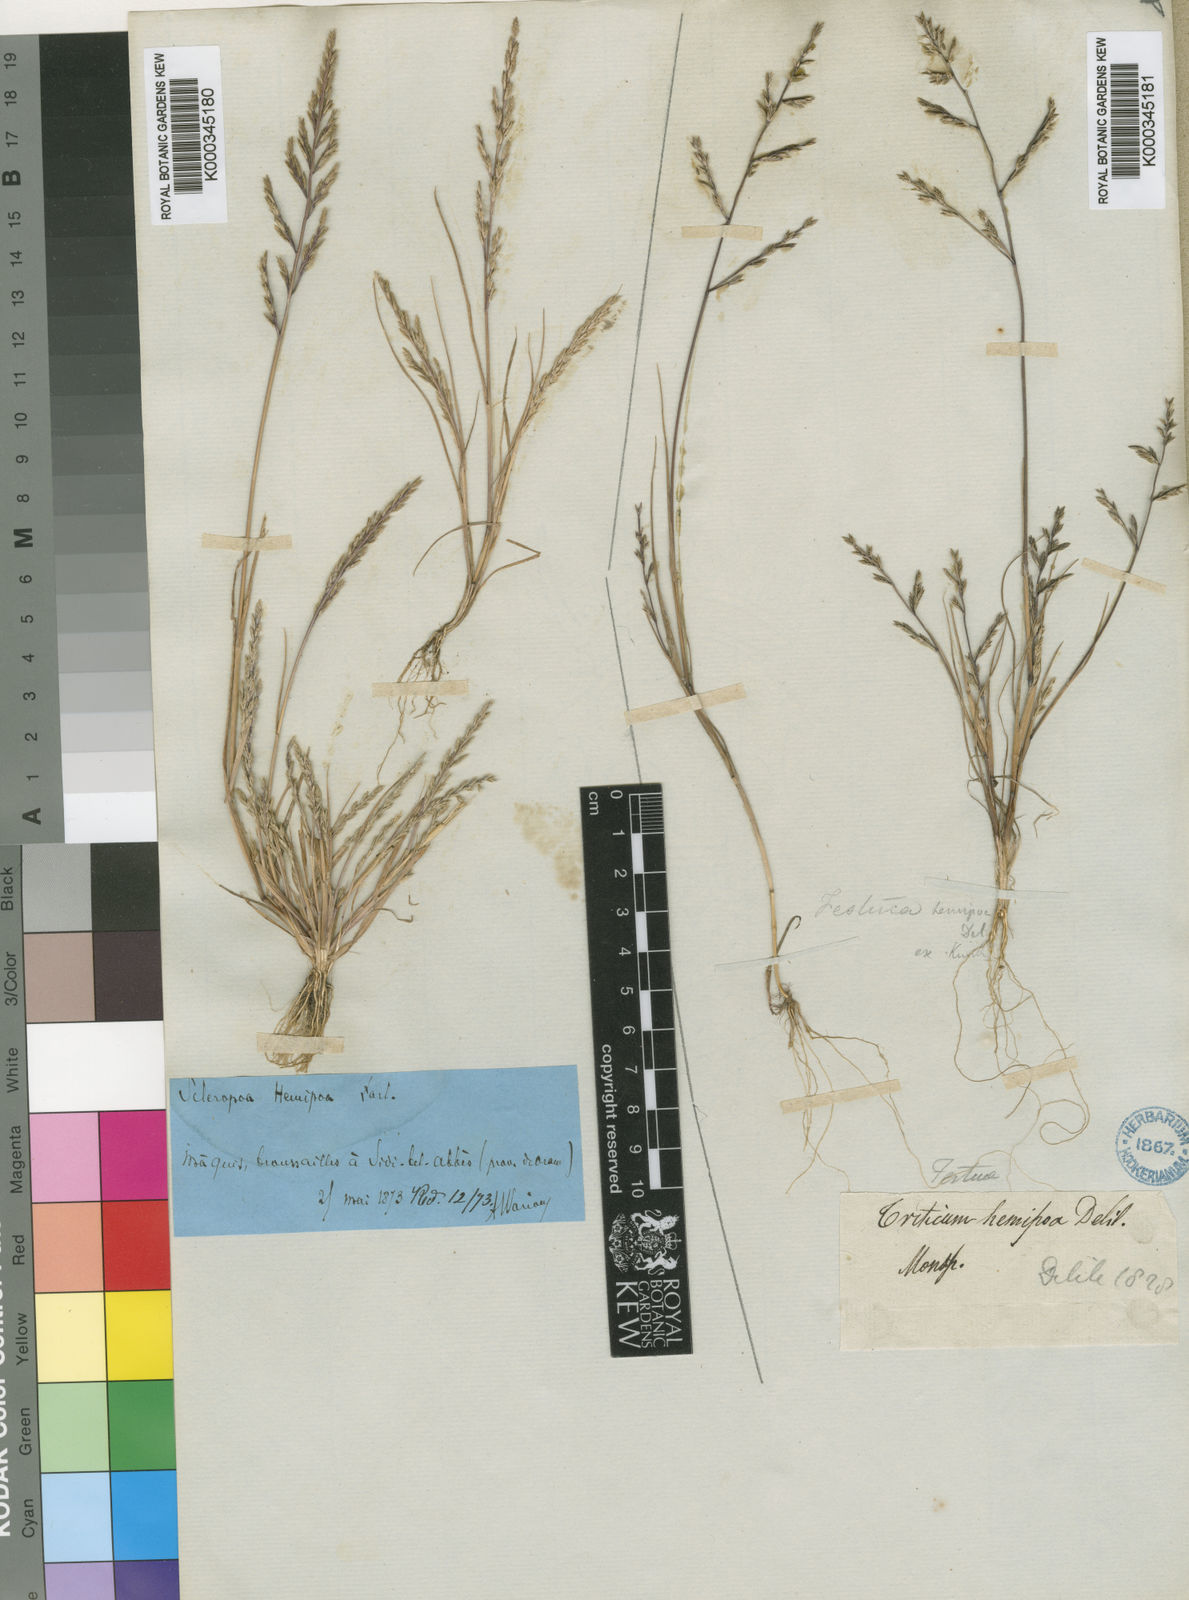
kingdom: Plantae
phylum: Tracheophyta
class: Liliopsida
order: Poales
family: Poaceae
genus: Catapodium
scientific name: Catapodium hemipoa
